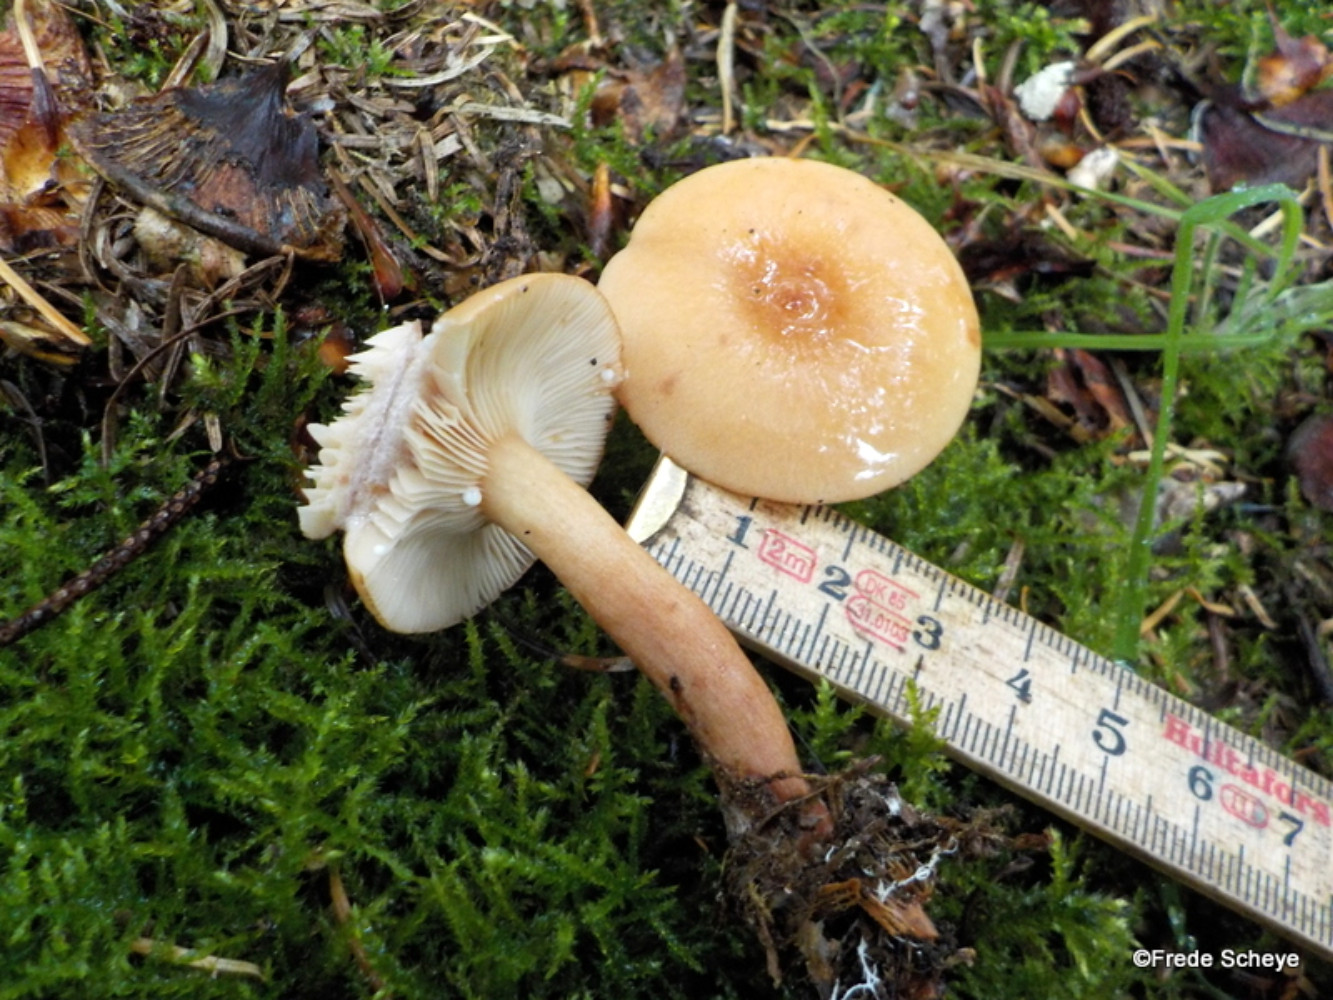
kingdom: Fungi
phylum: Basidiomycota
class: Agaricomycetes
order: Russulales
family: Russulaceae
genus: Lactarius
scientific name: Lactarius rufus
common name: rødbrun mælkehat
